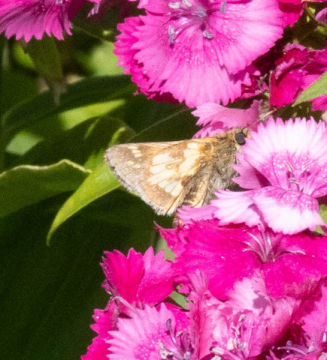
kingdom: Animalia
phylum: Arthropoda
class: Insecta
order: Lepidoptera
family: Hesperiidae
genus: Polites
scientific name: Polites coras
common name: Peck's Skipper
